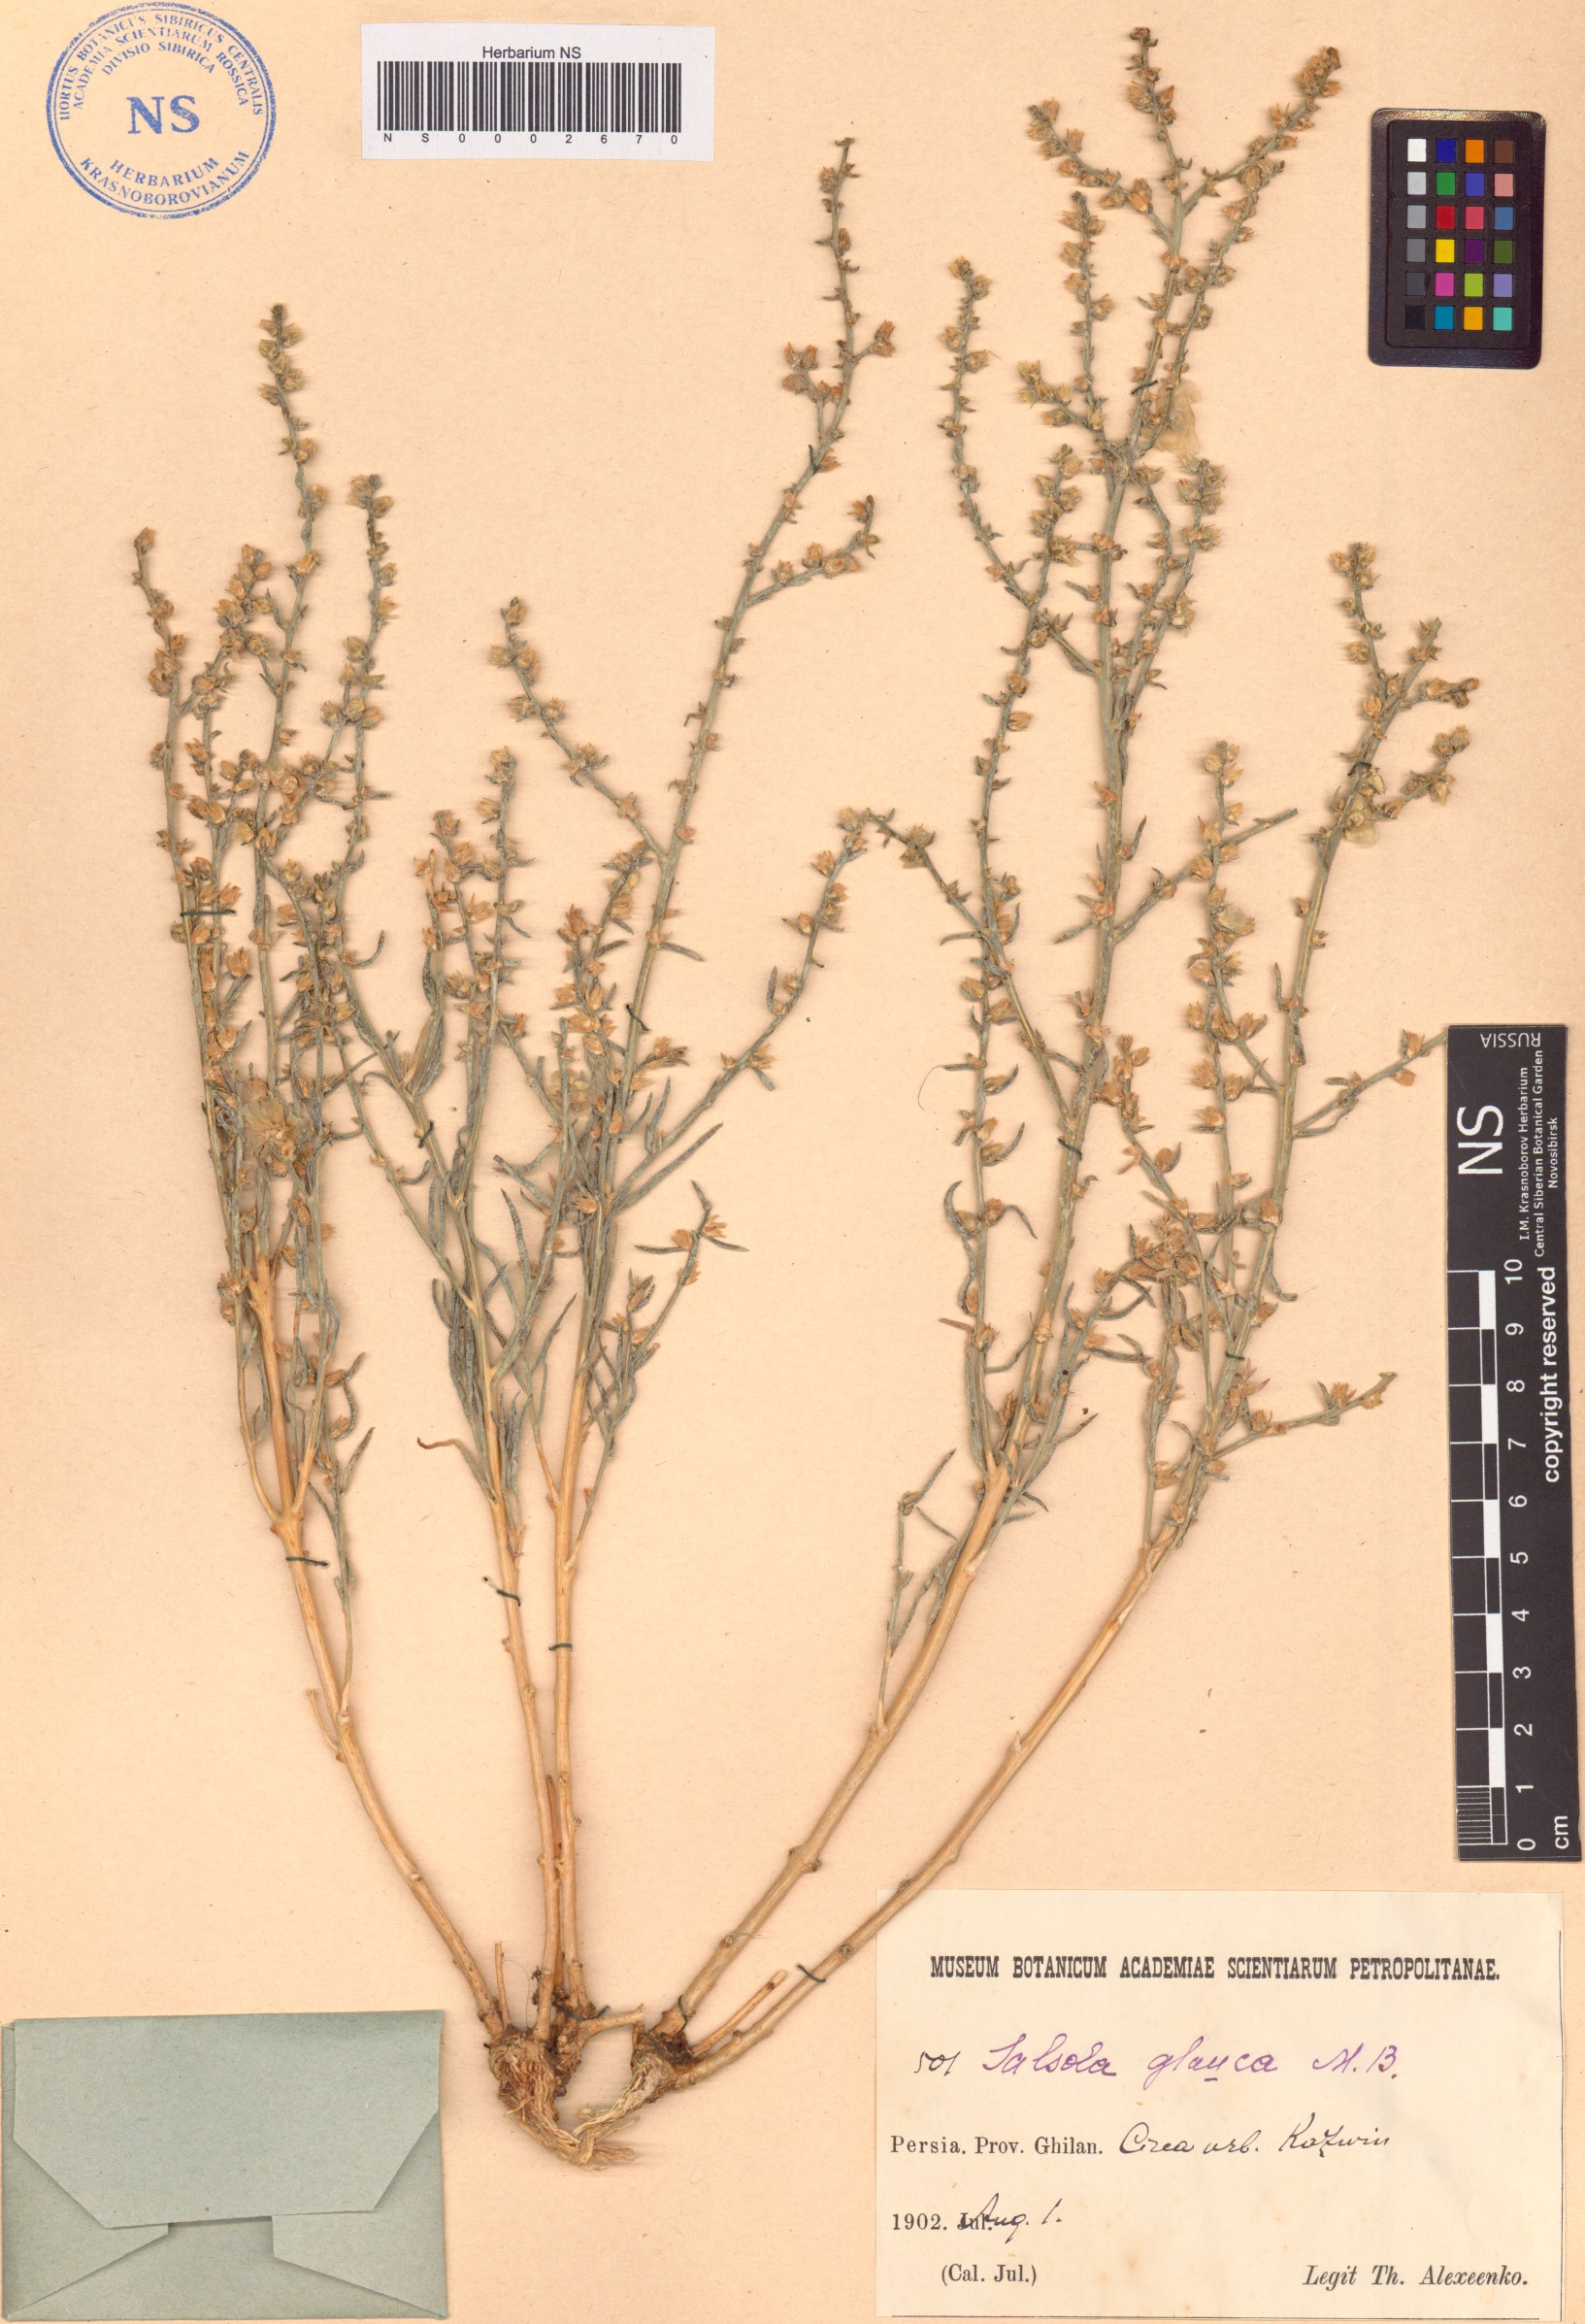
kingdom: Plantae
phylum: Tracheophyta
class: Magnoliopsida
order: Caryophyllales
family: Amaranthaceae
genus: Halothamnus
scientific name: Halothamnus glaucus
